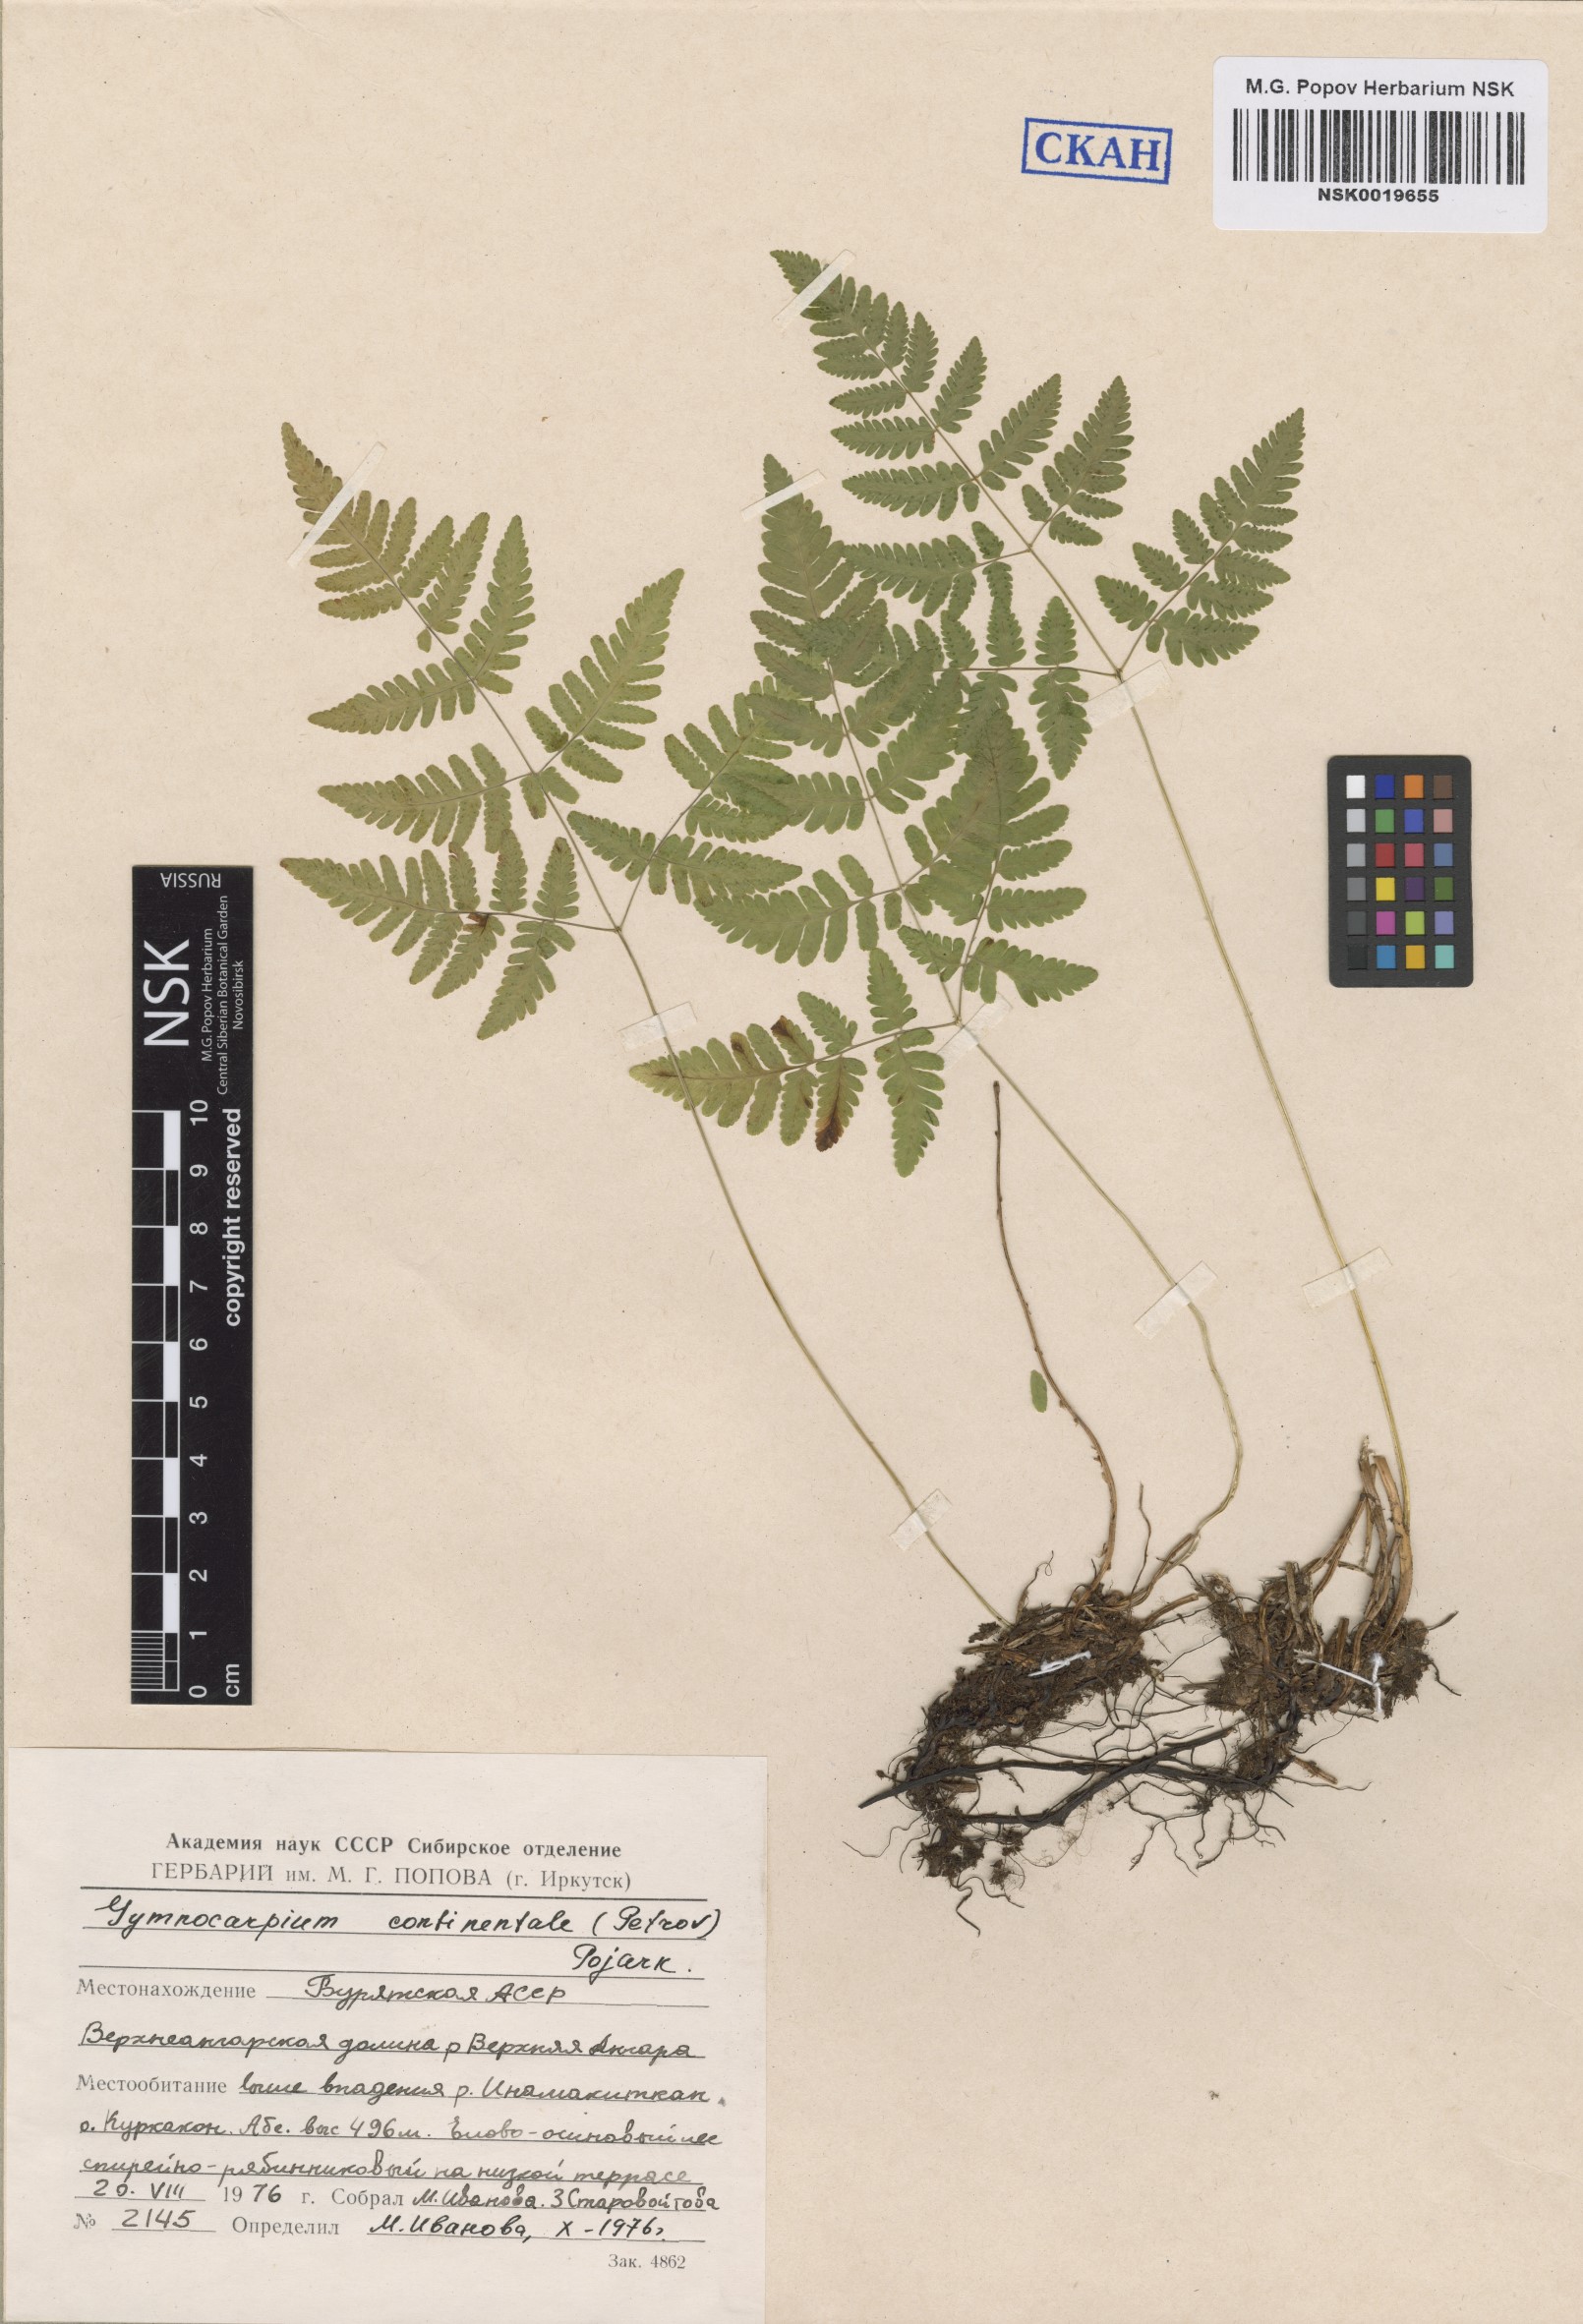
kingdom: Plantae
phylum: Tracheophyta
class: Polypodiopsida
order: Polypodiales
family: Cystopteridaceae
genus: Gymnocarpium
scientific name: Gymnocarpium continentale
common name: Asian oak fern
